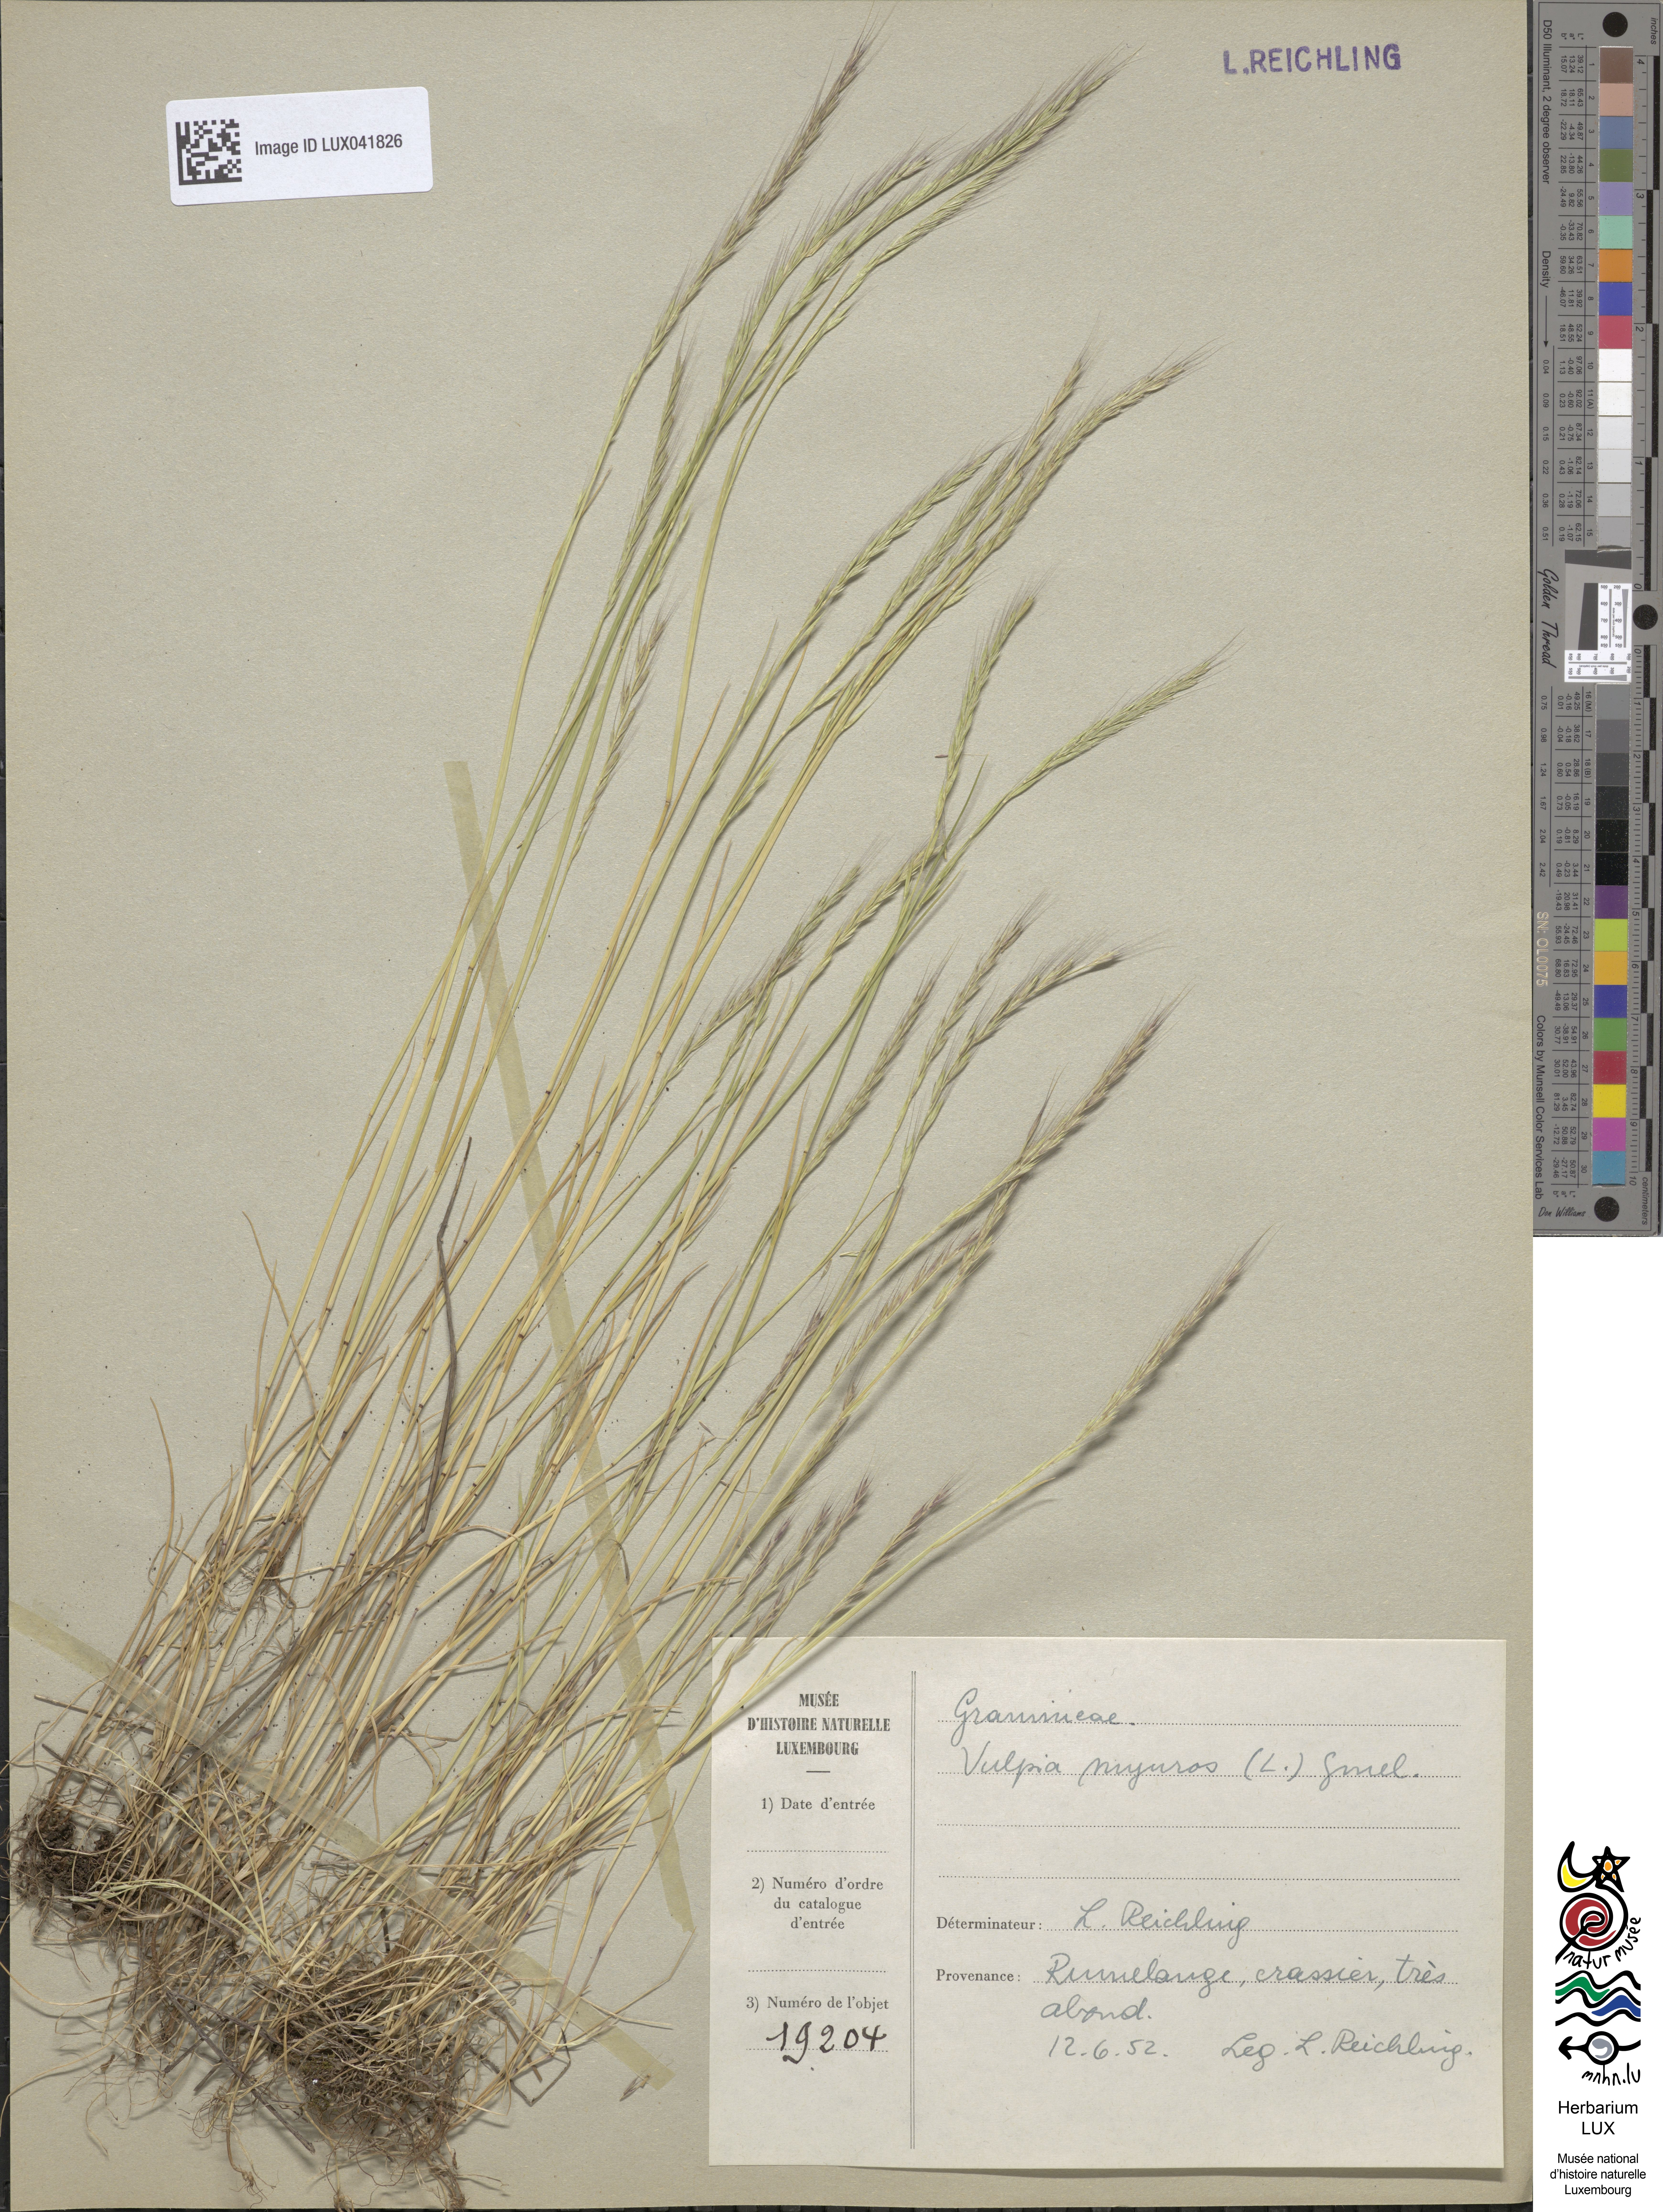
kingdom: Plantae
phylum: Tracheophyta
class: Liliopsida
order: Poales
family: Poaceae
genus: Festuca
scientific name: Festuca myuros
